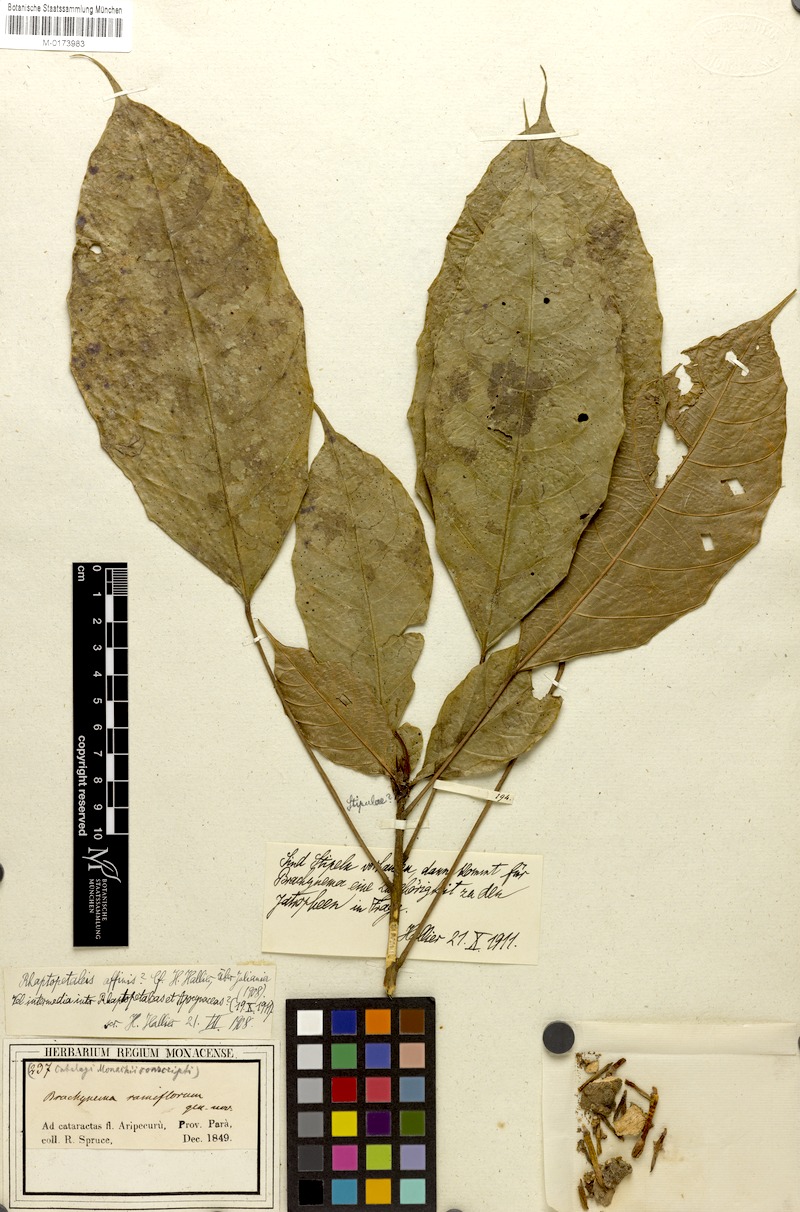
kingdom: Plantae
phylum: Tracheophyta
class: Magnoliopsida
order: Santalales
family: Erythropalaceae
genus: Brachynema
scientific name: Brachynema ramiflorum
